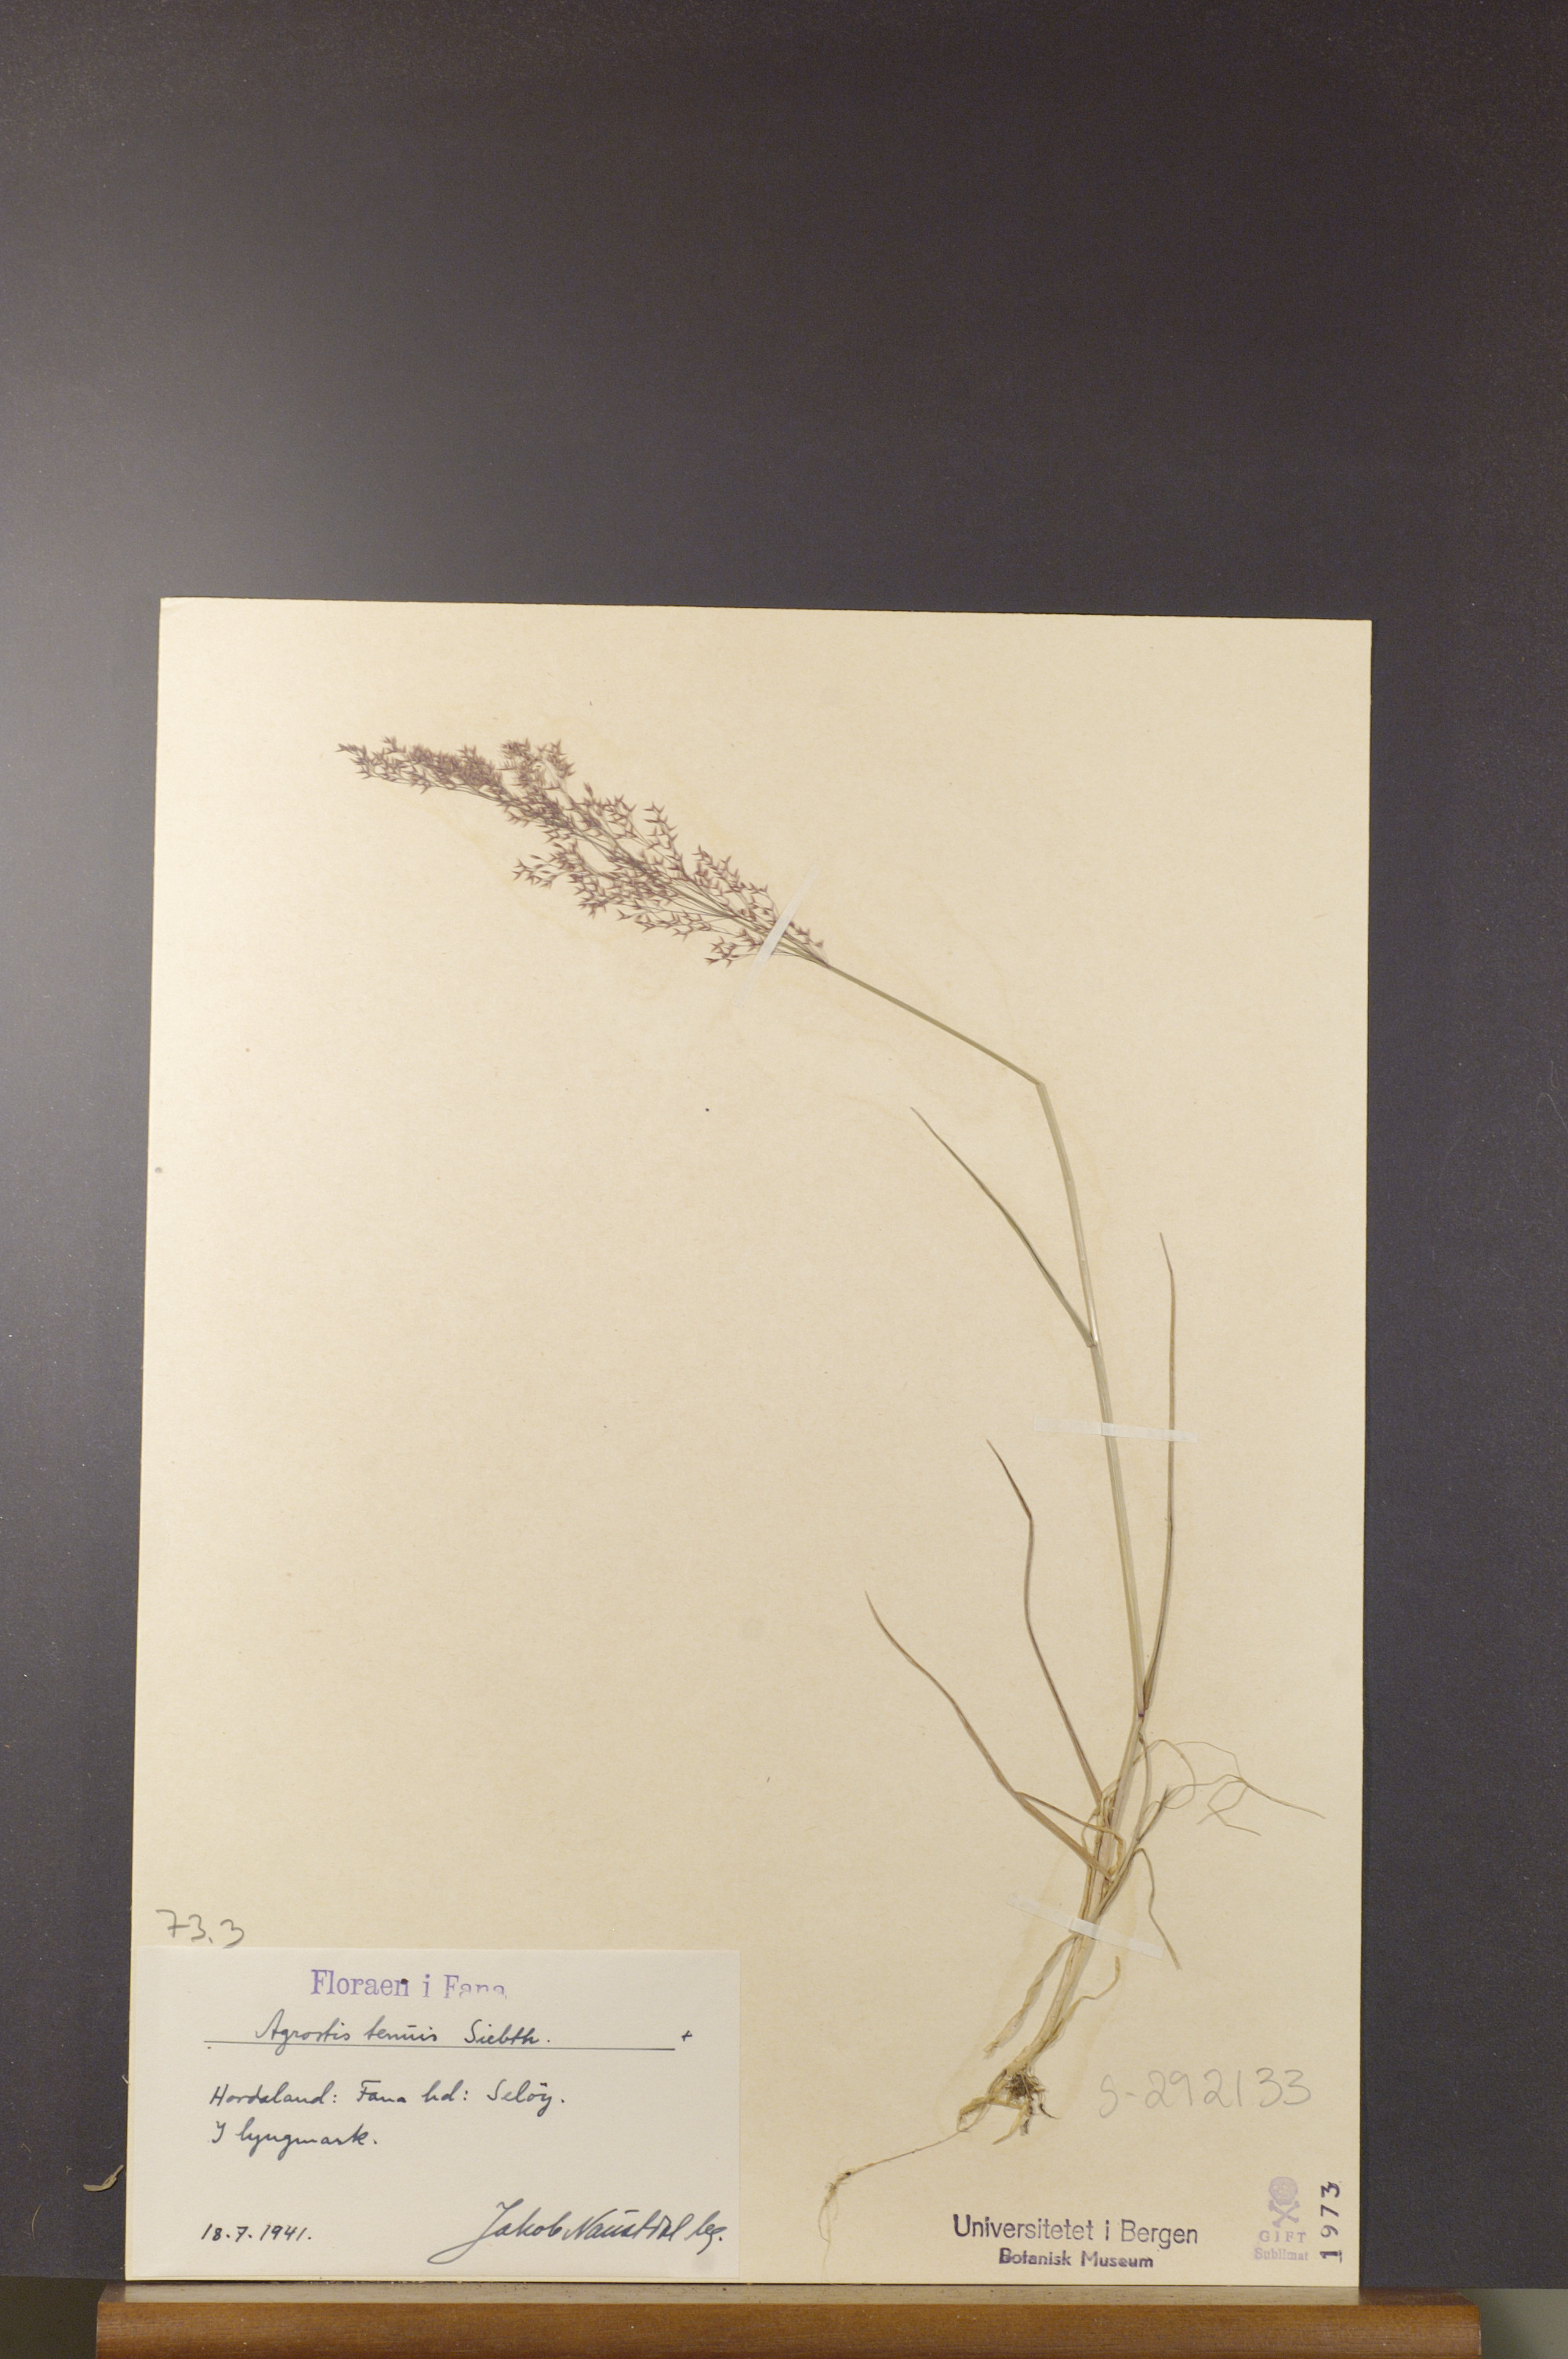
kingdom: Plantae
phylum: Tracheophyta
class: Liliopsida
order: Poales
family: Poaceae
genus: Agrostis
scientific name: Agrostis capillaris
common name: Colonial bentgrass
